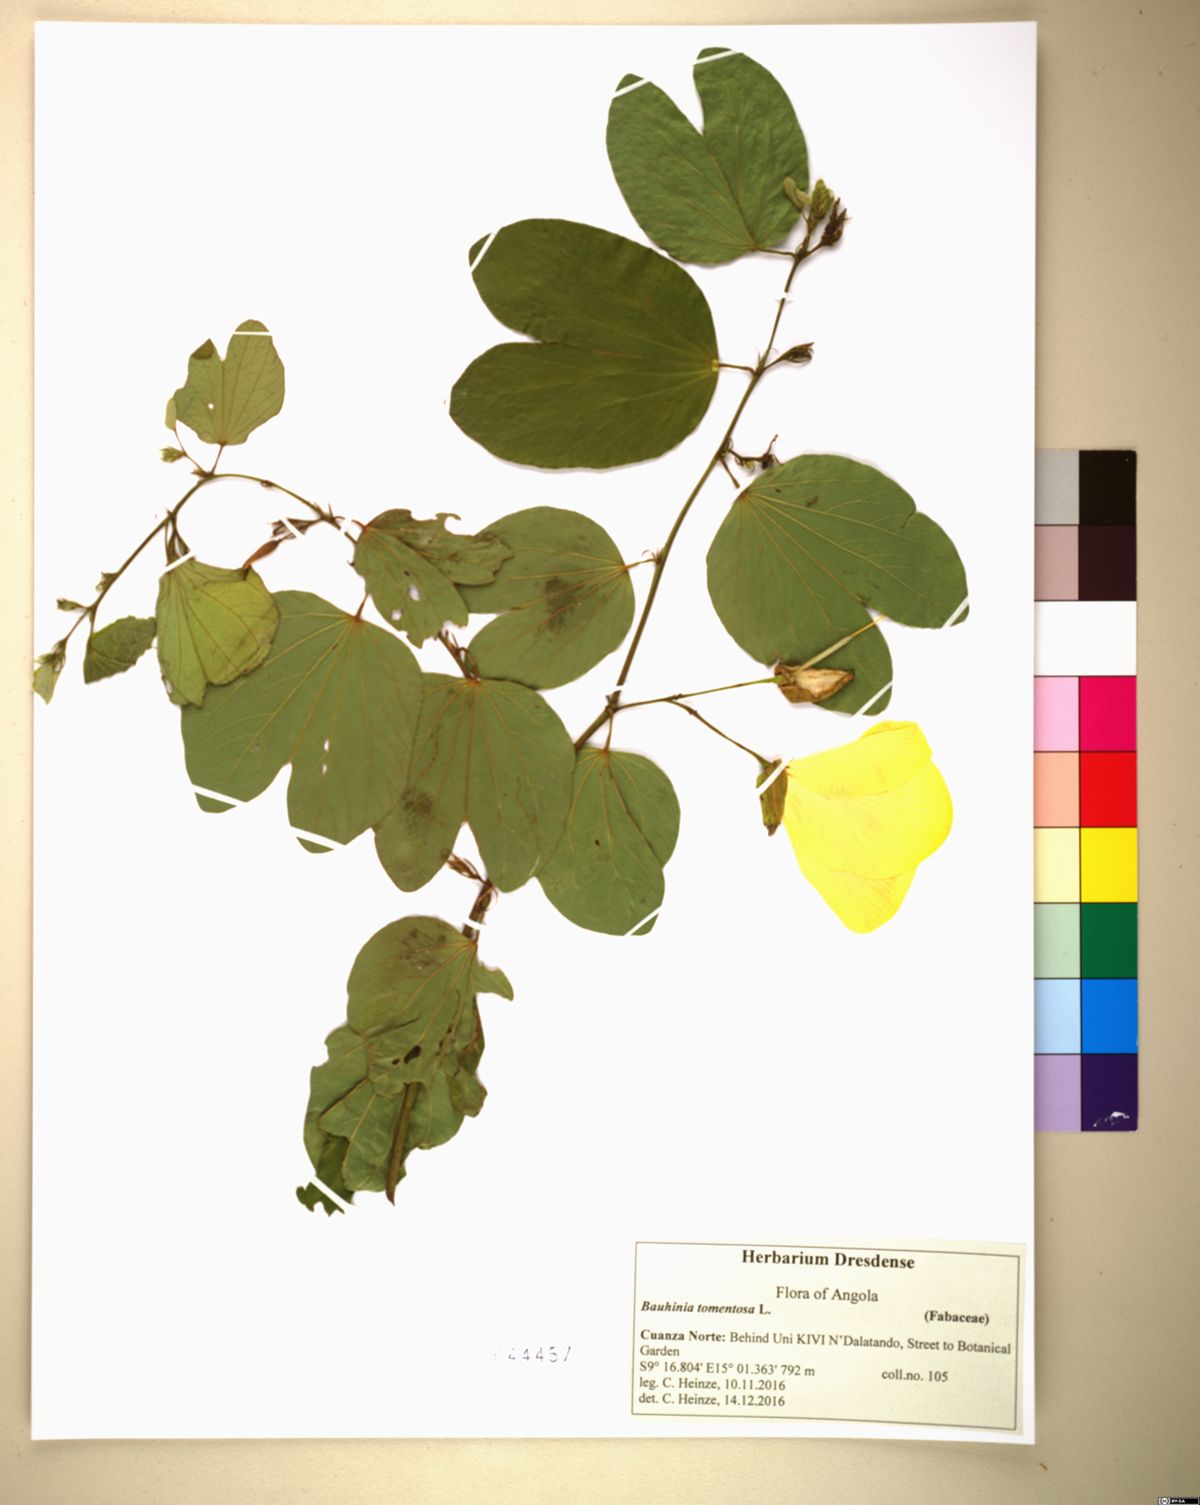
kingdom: Plantae
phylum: Tracheophyta
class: Magnoliopsida
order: Fabales
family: Fabaceae
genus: Bauhinia
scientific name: Bauhinia tomentosa
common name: Bell bauhinia
